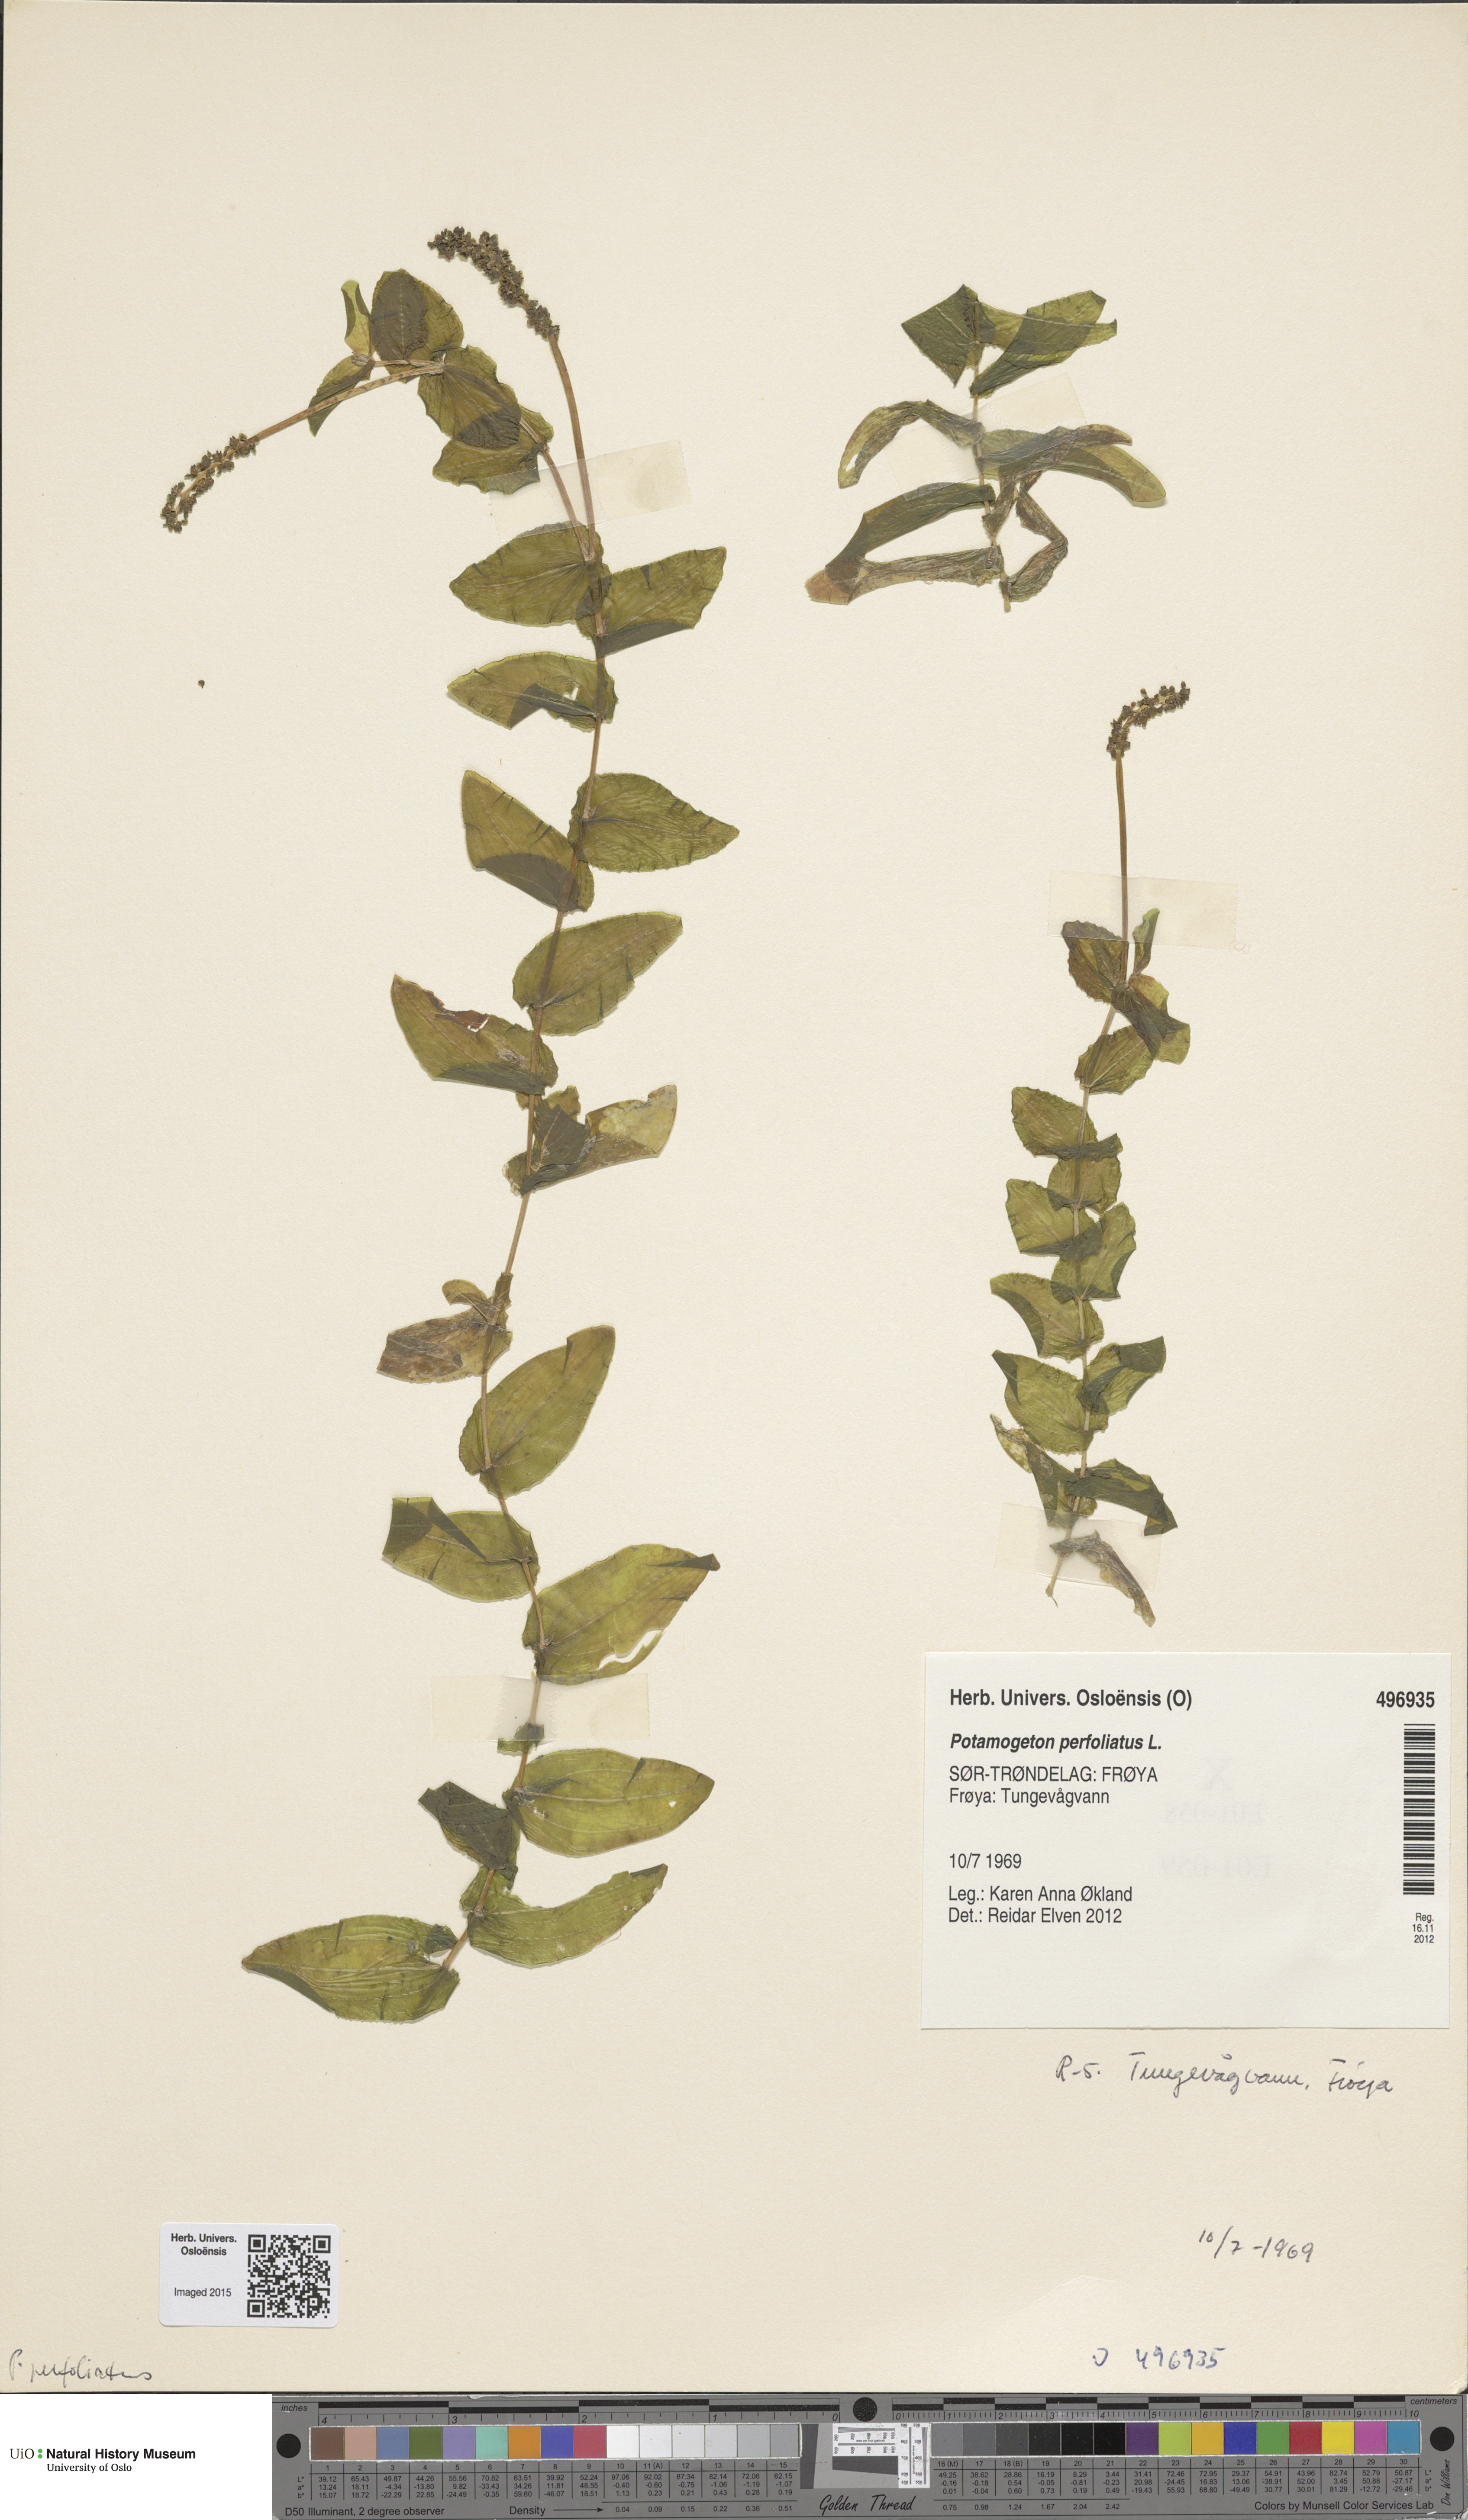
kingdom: Plantae
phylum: Tracheophyta
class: Liliopsida
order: Alismatales
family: Potamogetonaceae
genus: Potamogeton
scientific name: Potamogeton perfoliatus
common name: Perfoliate pondweed
